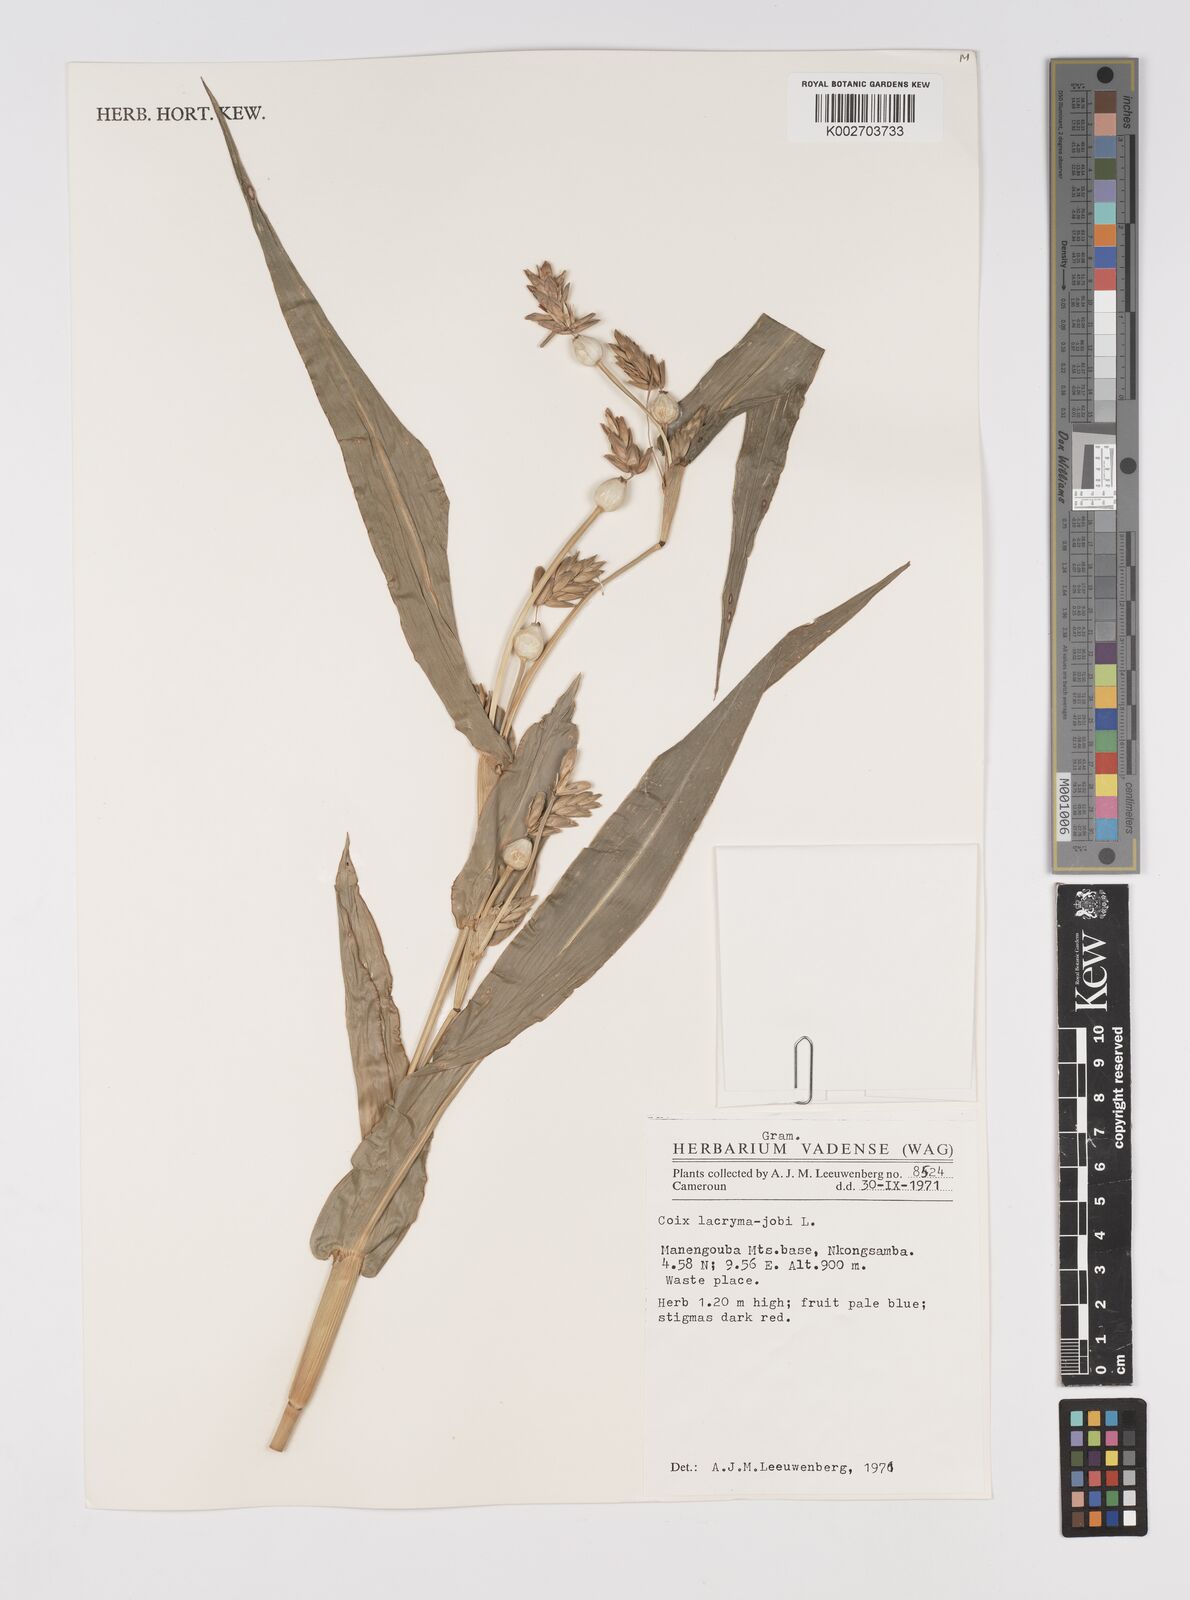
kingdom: Plantae
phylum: Tracheophyta
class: Liliopsida
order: Poales
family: Poaceae
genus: Coix
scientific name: Coix lacryma-jobi
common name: Job's tears
